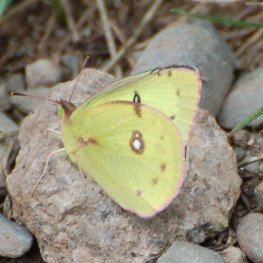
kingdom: Animalia
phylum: Arthropoda
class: Insecta
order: Lepidoptera
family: Pieridae
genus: Colias
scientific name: Colias philodice
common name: Clouded Sulphur
